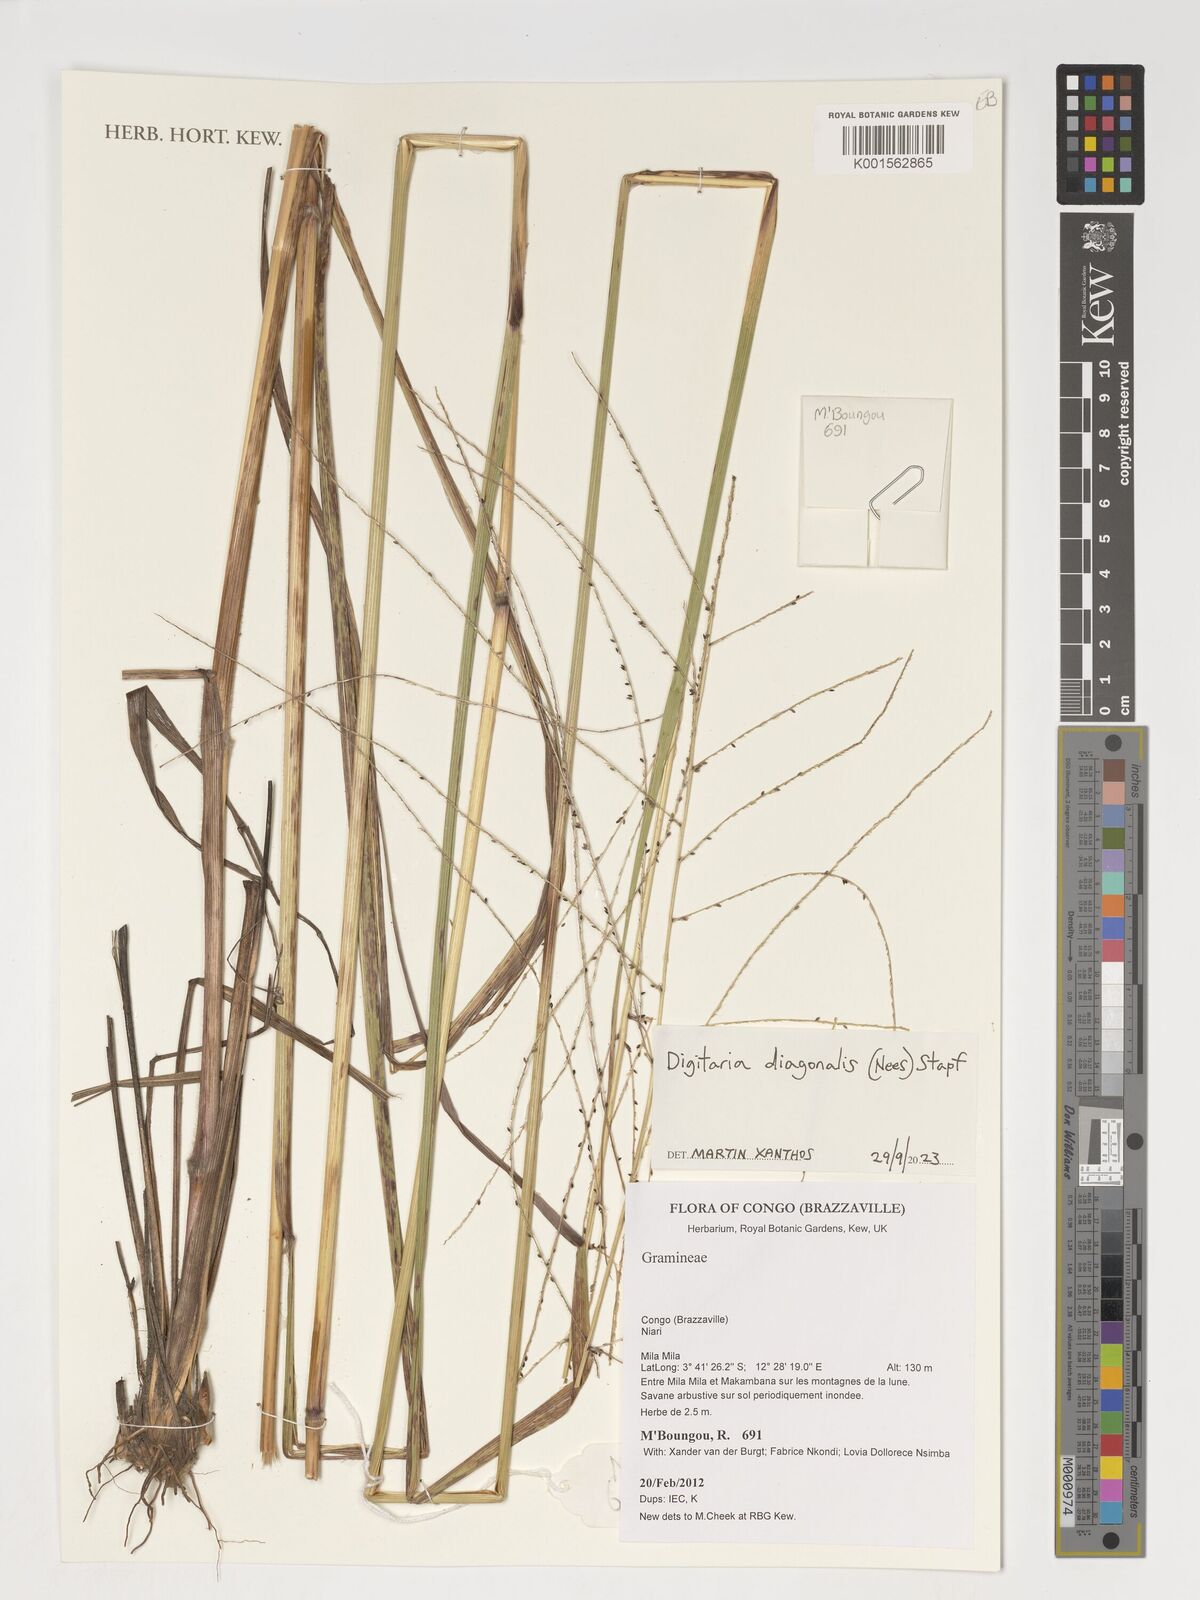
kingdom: Plantae
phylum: Tracheophyta
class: Liliopsida
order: Poales
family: Poaceae
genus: Digitaria
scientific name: Digitaria diagonalis
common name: Brown-seed finger grass
